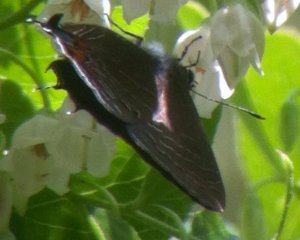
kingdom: Animalia
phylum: Arthropoda
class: Insecta
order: Lepidoptera
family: Lycaenidae
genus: Satyrium
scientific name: Satyrium liparops
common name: Striped Hairstreak
